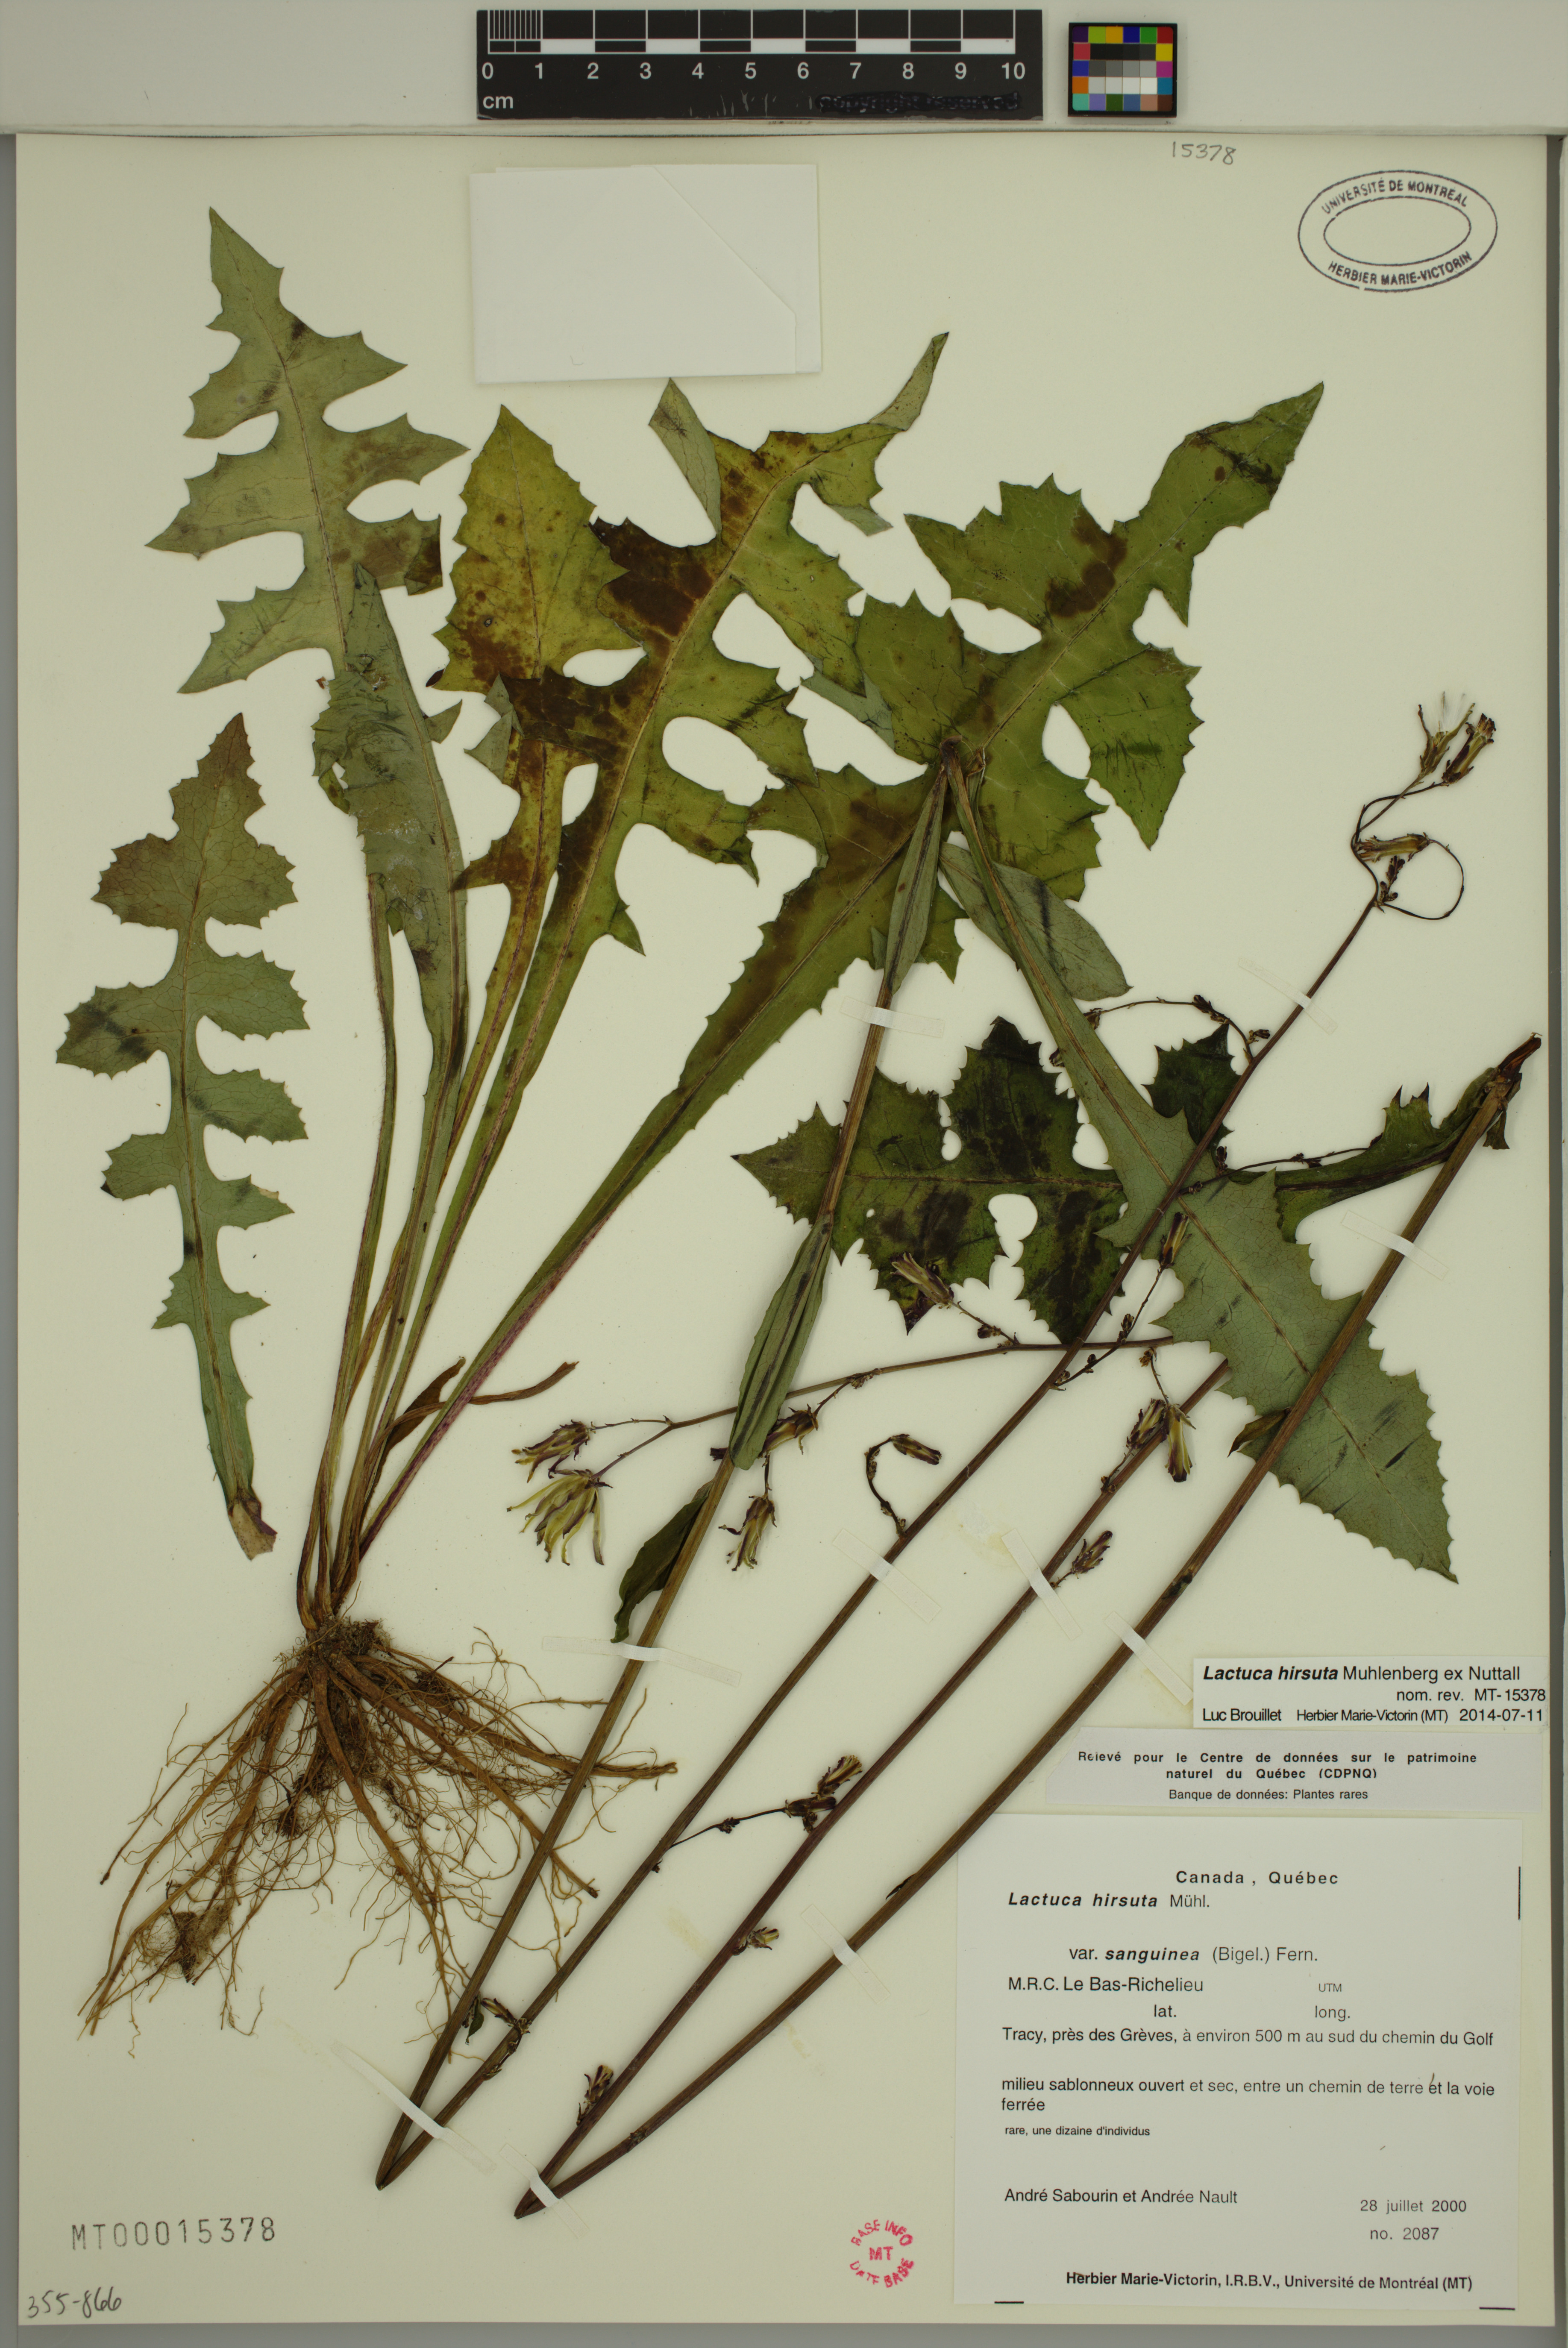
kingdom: Plantae
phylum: Tracheophyta
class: Magnoliopsida
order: Asterales
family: Asteraceae
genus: Lactuca
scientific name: Lactuca hirsuta
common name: Hairy lettuce
